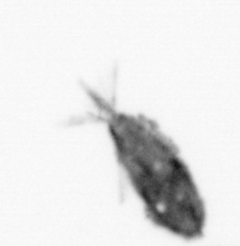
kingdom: Animalia
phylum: Arthropoda
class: Maxillopoda
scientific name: Maxillopoda
